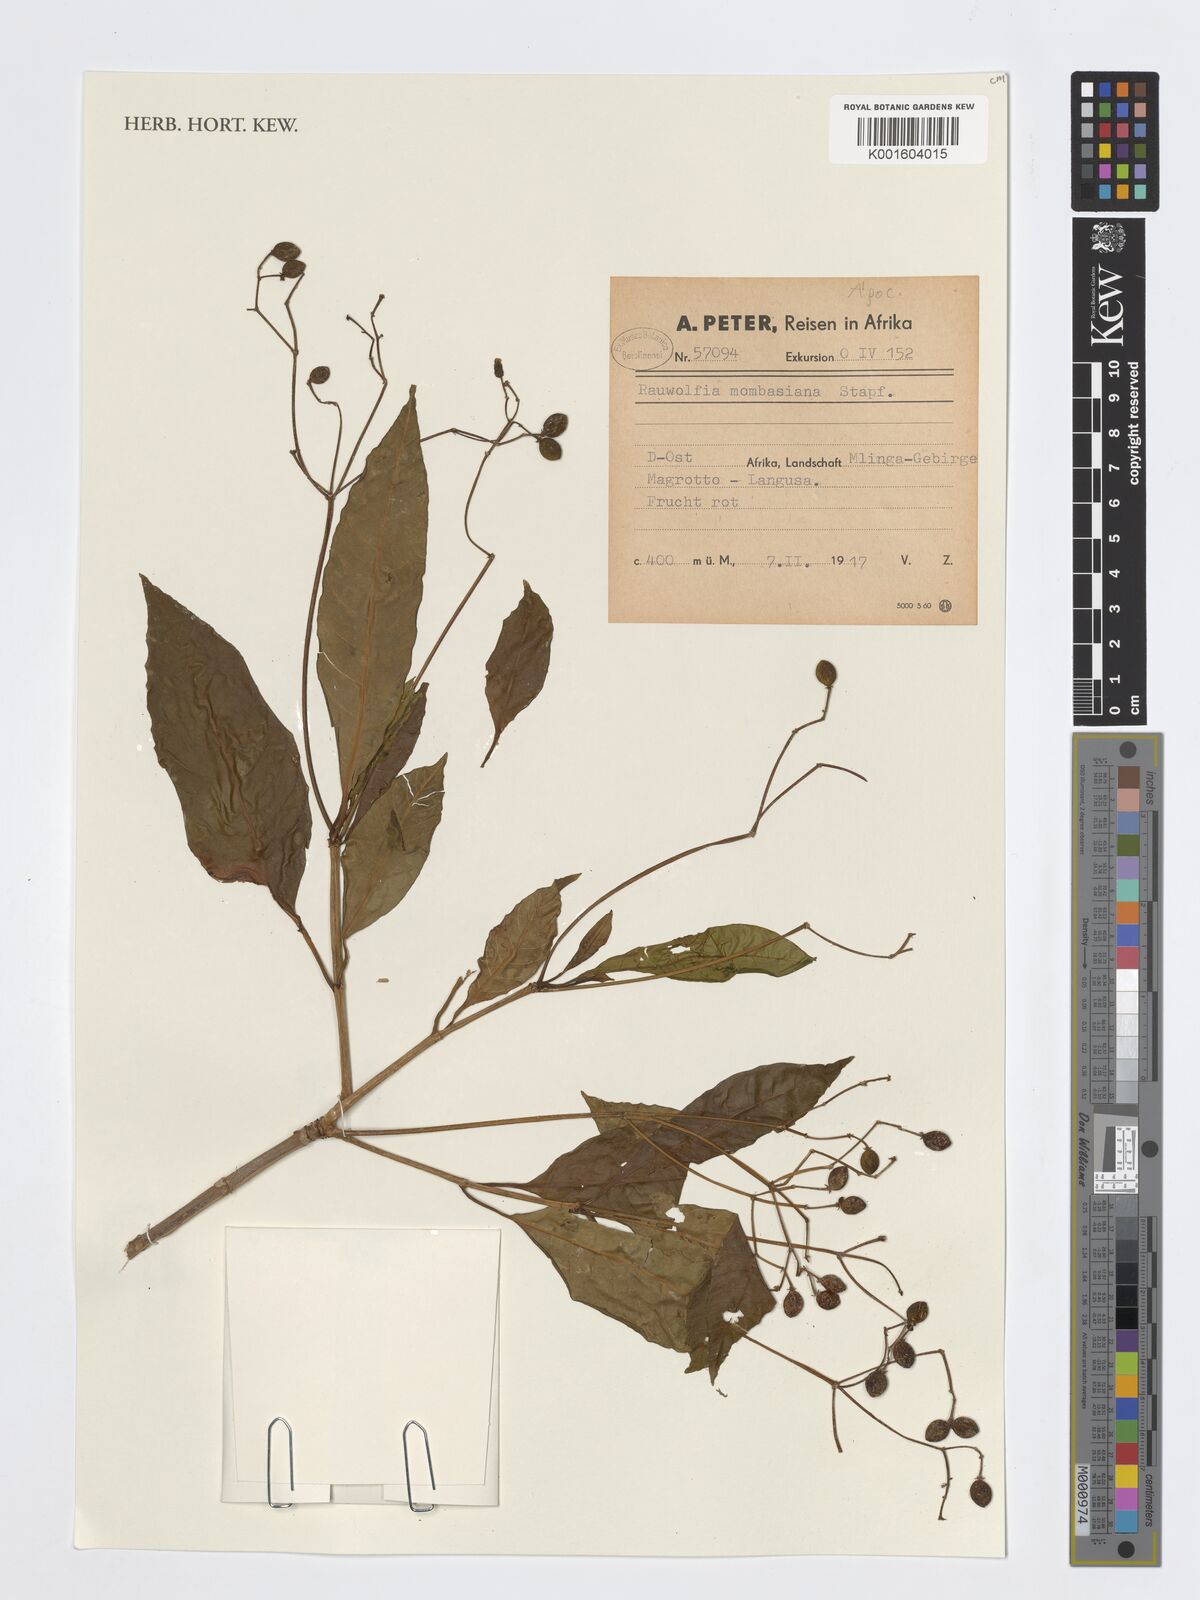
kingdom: Plantae
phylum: Tracheophyta
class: Magnoliopsida
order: Gentianales
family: Apocynaceae
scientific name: Apocynaceae
